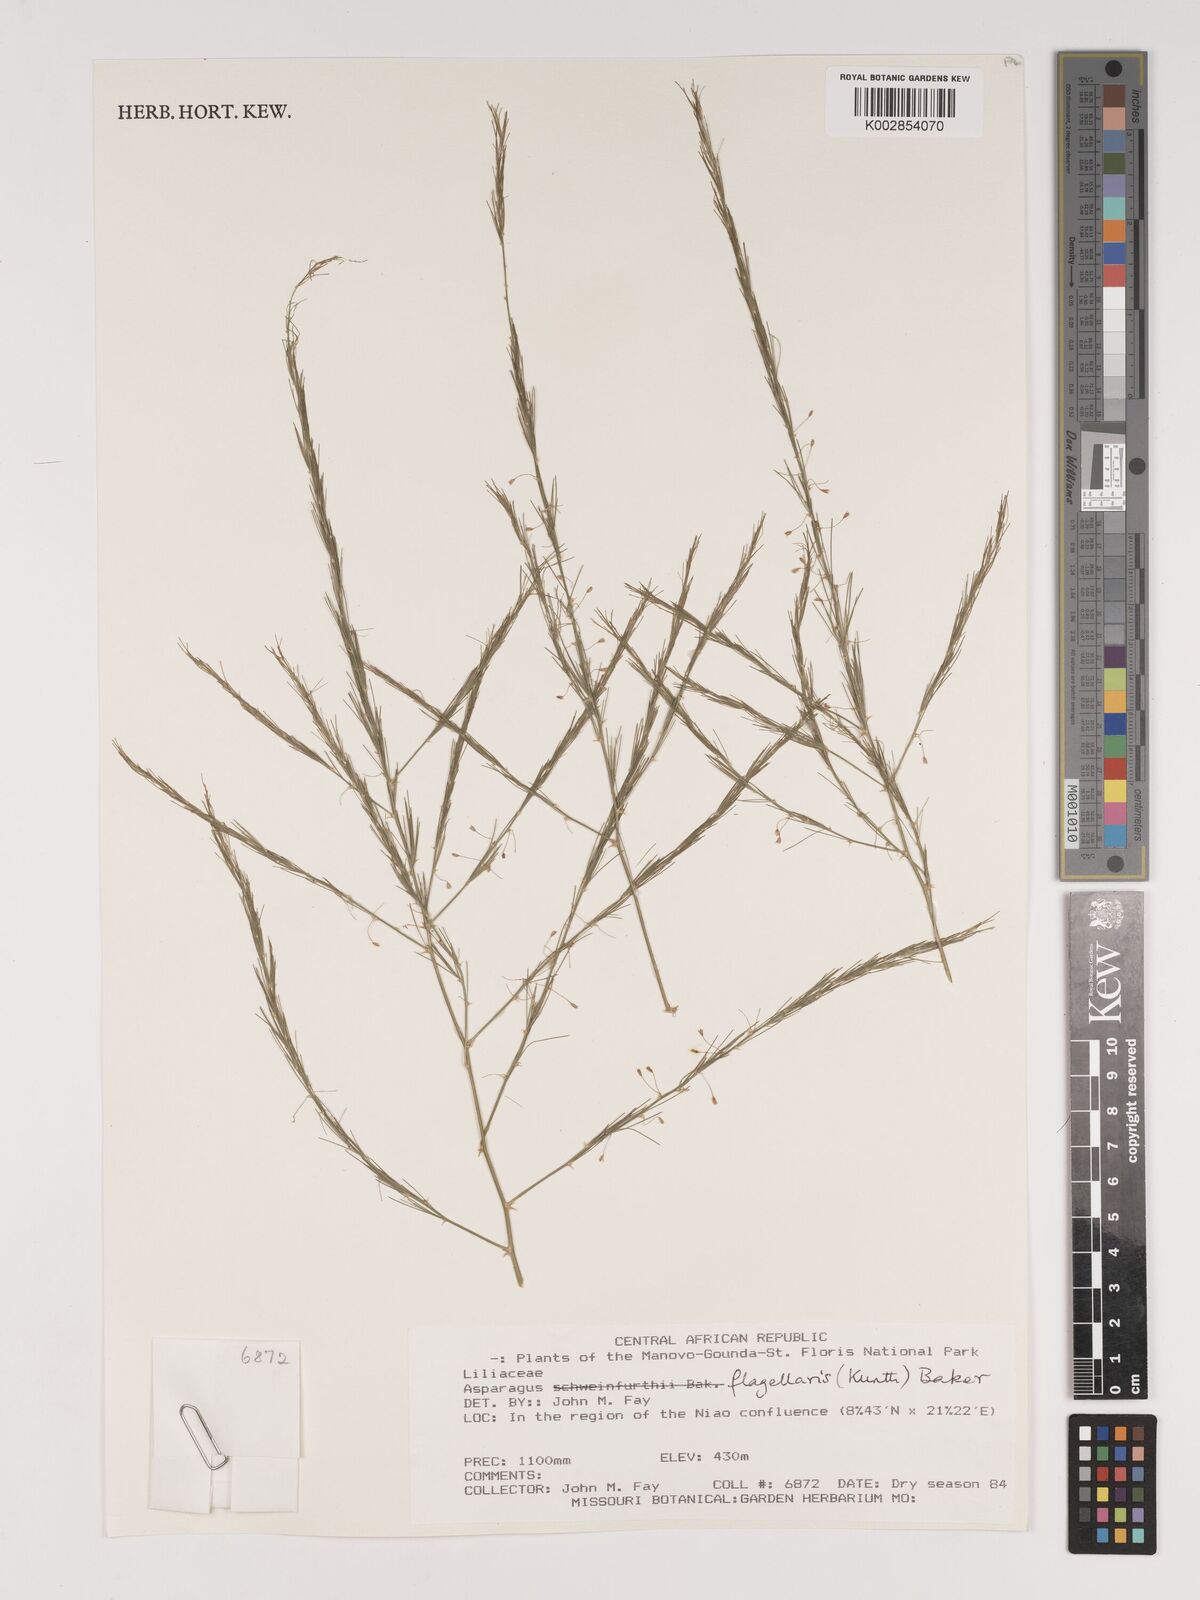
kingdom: Plantae
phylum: Tracheophyta
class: Liliopsida
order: Asparagales
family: Asparagaceae
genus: Asparagus
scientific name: Asparagus flagellaris
